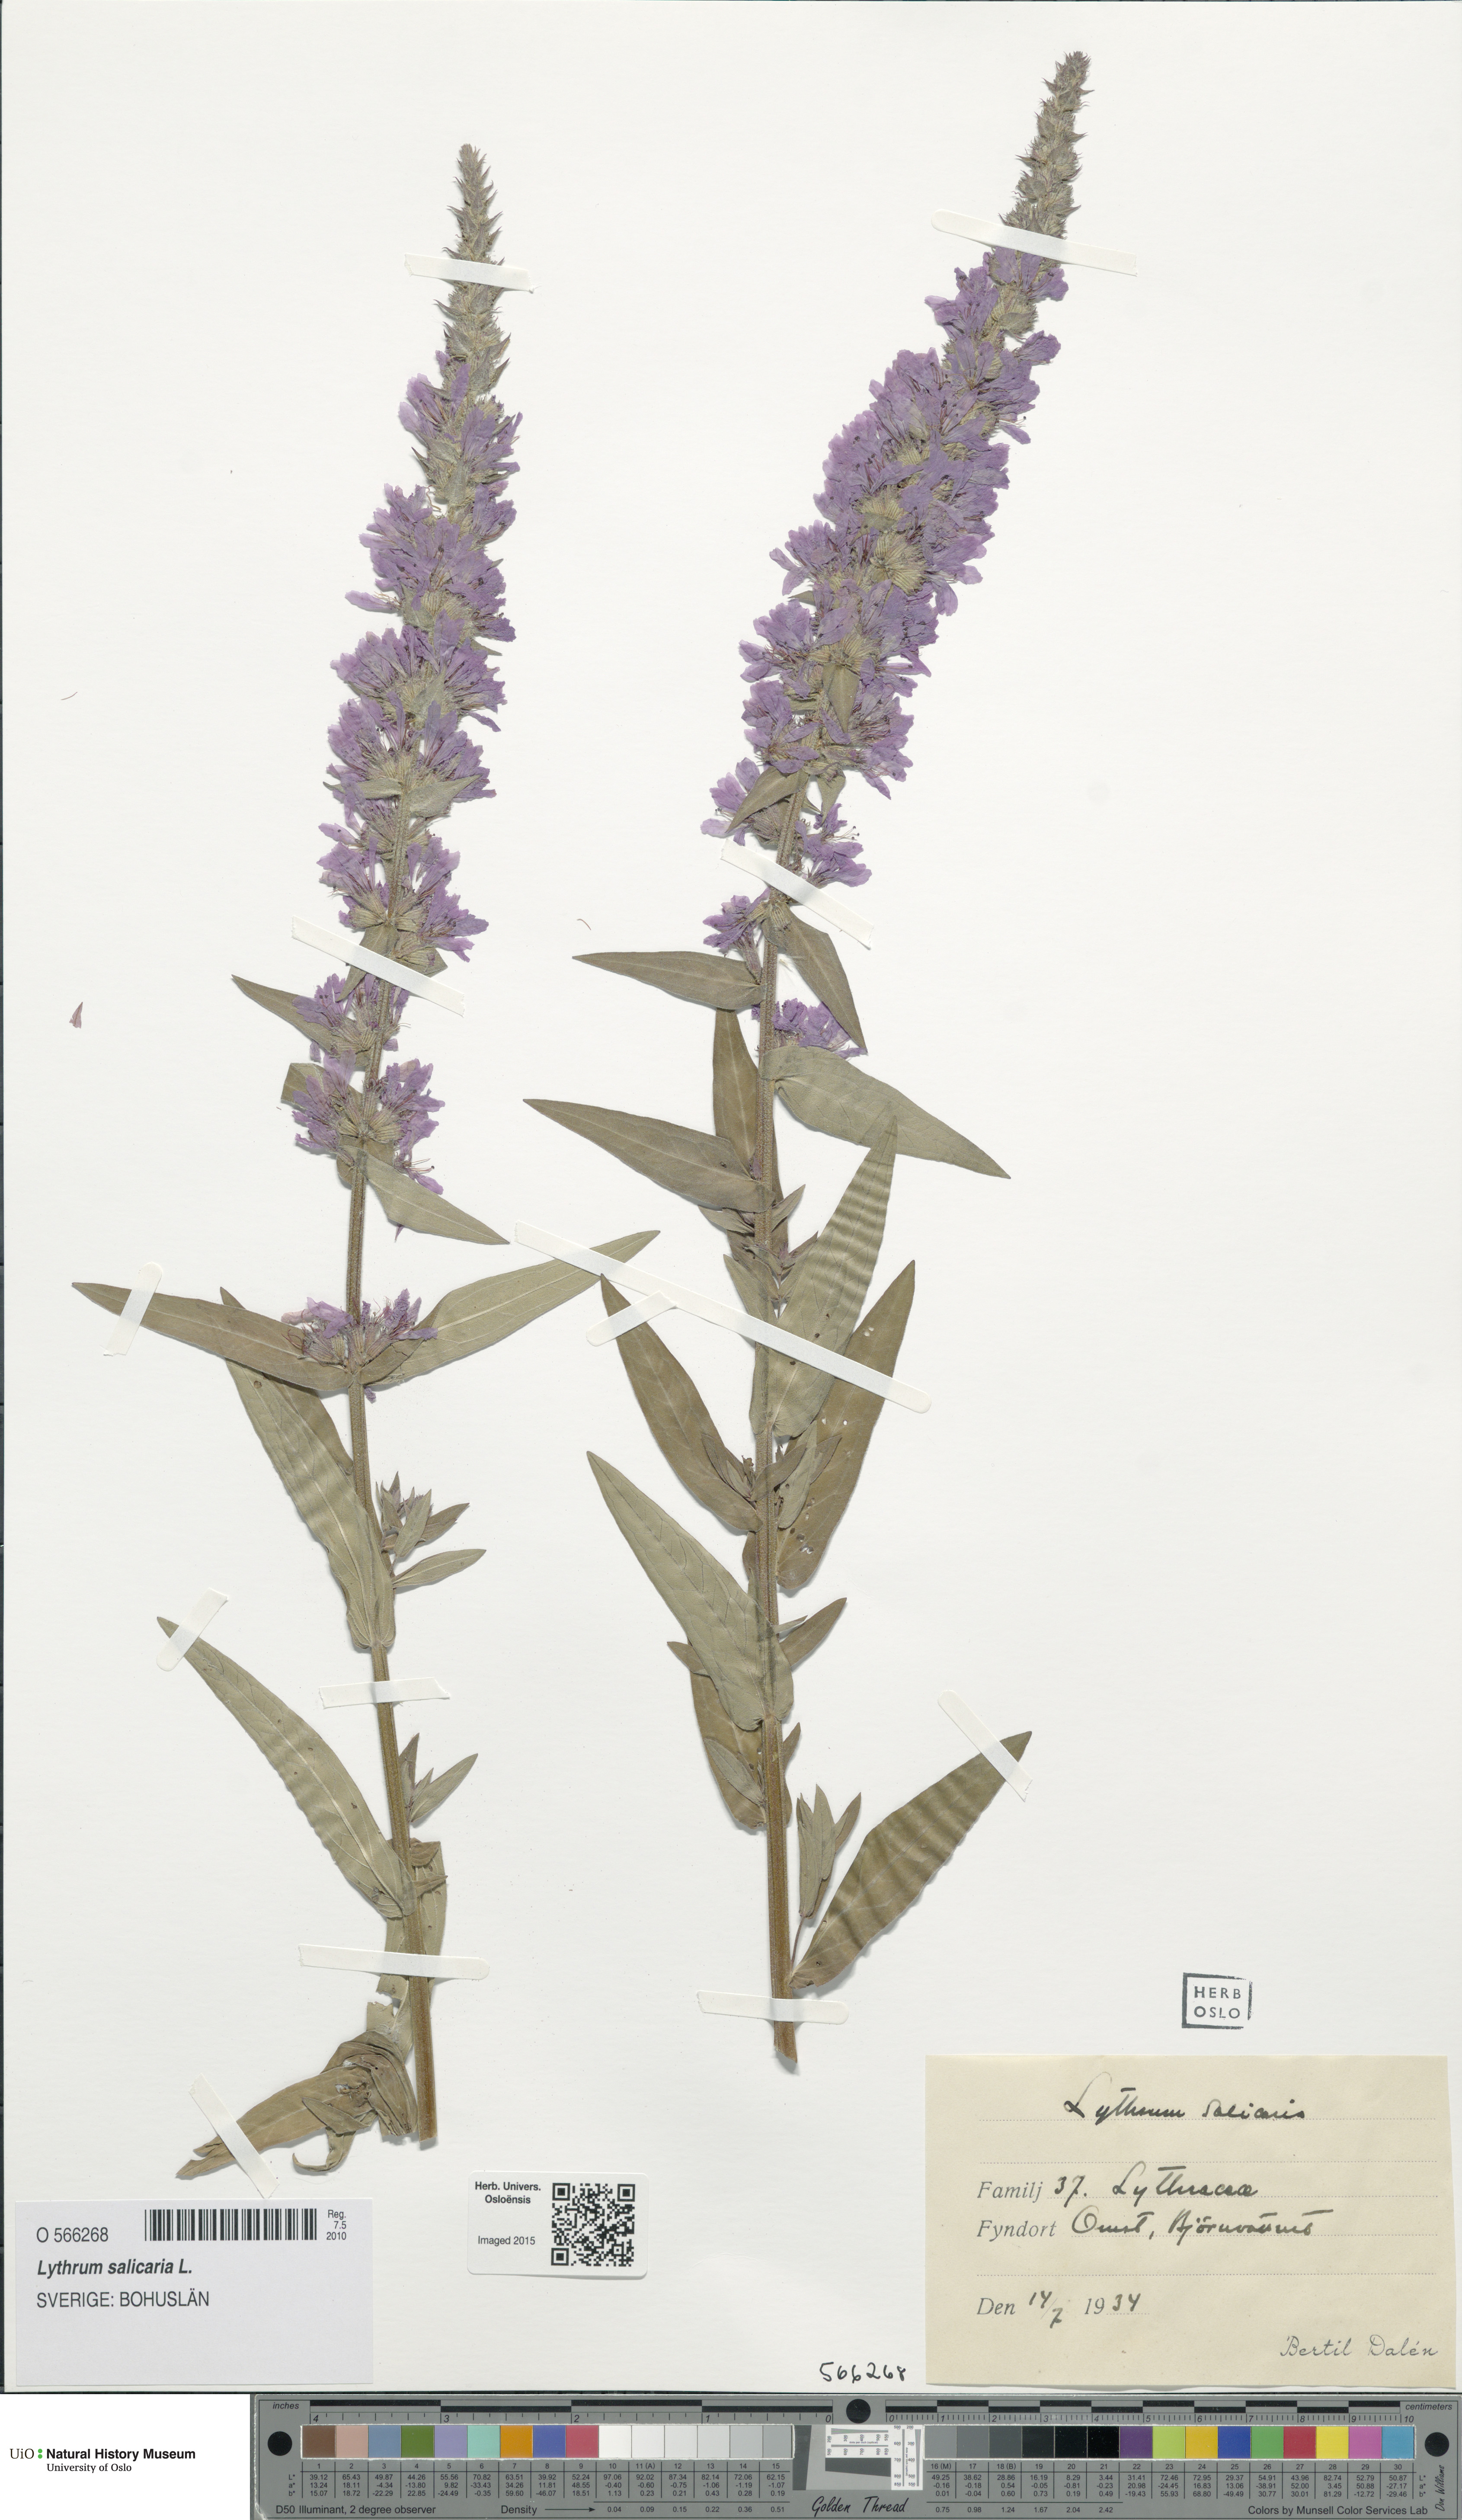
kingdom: Plantae
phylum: Tracheophyta
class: Magnoliopsida
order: Myrtales
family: Lythraceae
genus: Lythrum
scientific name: Lythrum salicaria
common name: Purple loosestrife
